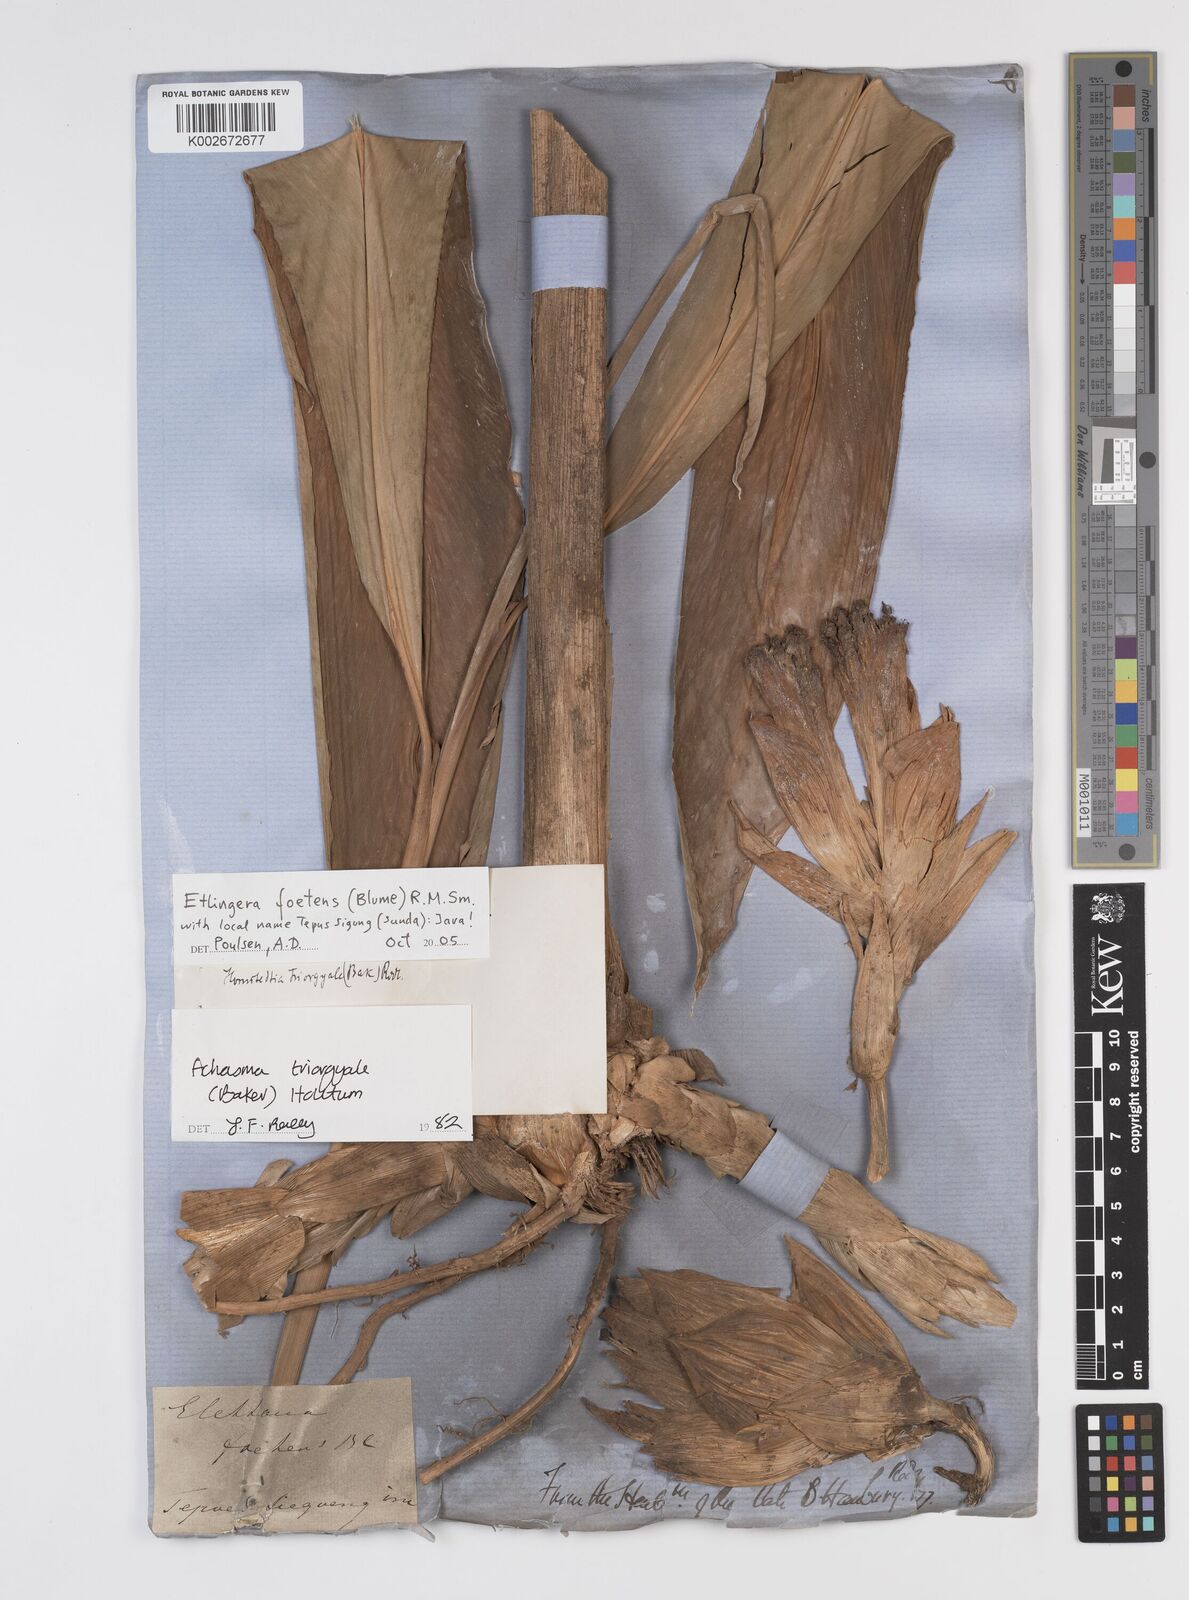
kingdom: Plantae
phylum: Tracheophyta
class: Liliopsida
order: Zingiberales
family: Zingiberaceae
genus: Etlingera
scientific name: Etlingera foetens
